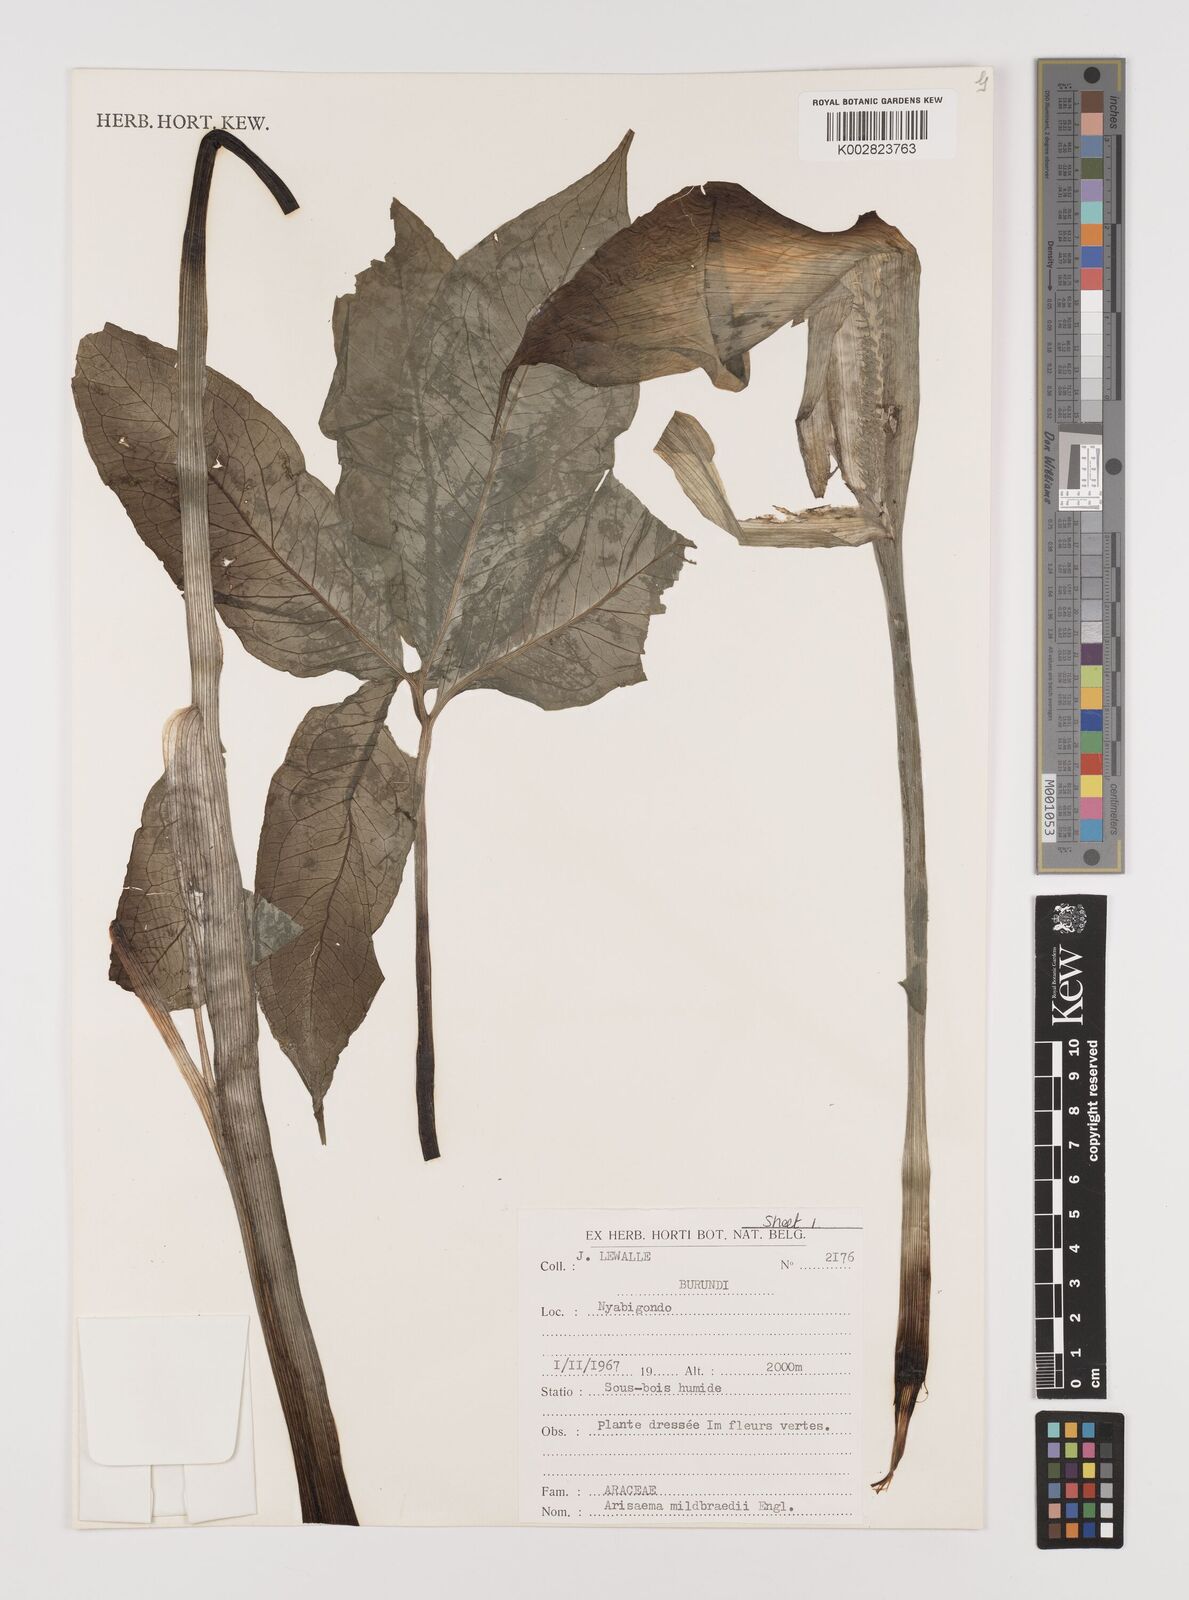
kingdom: Plantae
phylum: Tracheophyta
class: Liliopsida
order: Alismatales
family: Araceae
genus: Arisaema
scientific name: Arisaema mildbraedii
